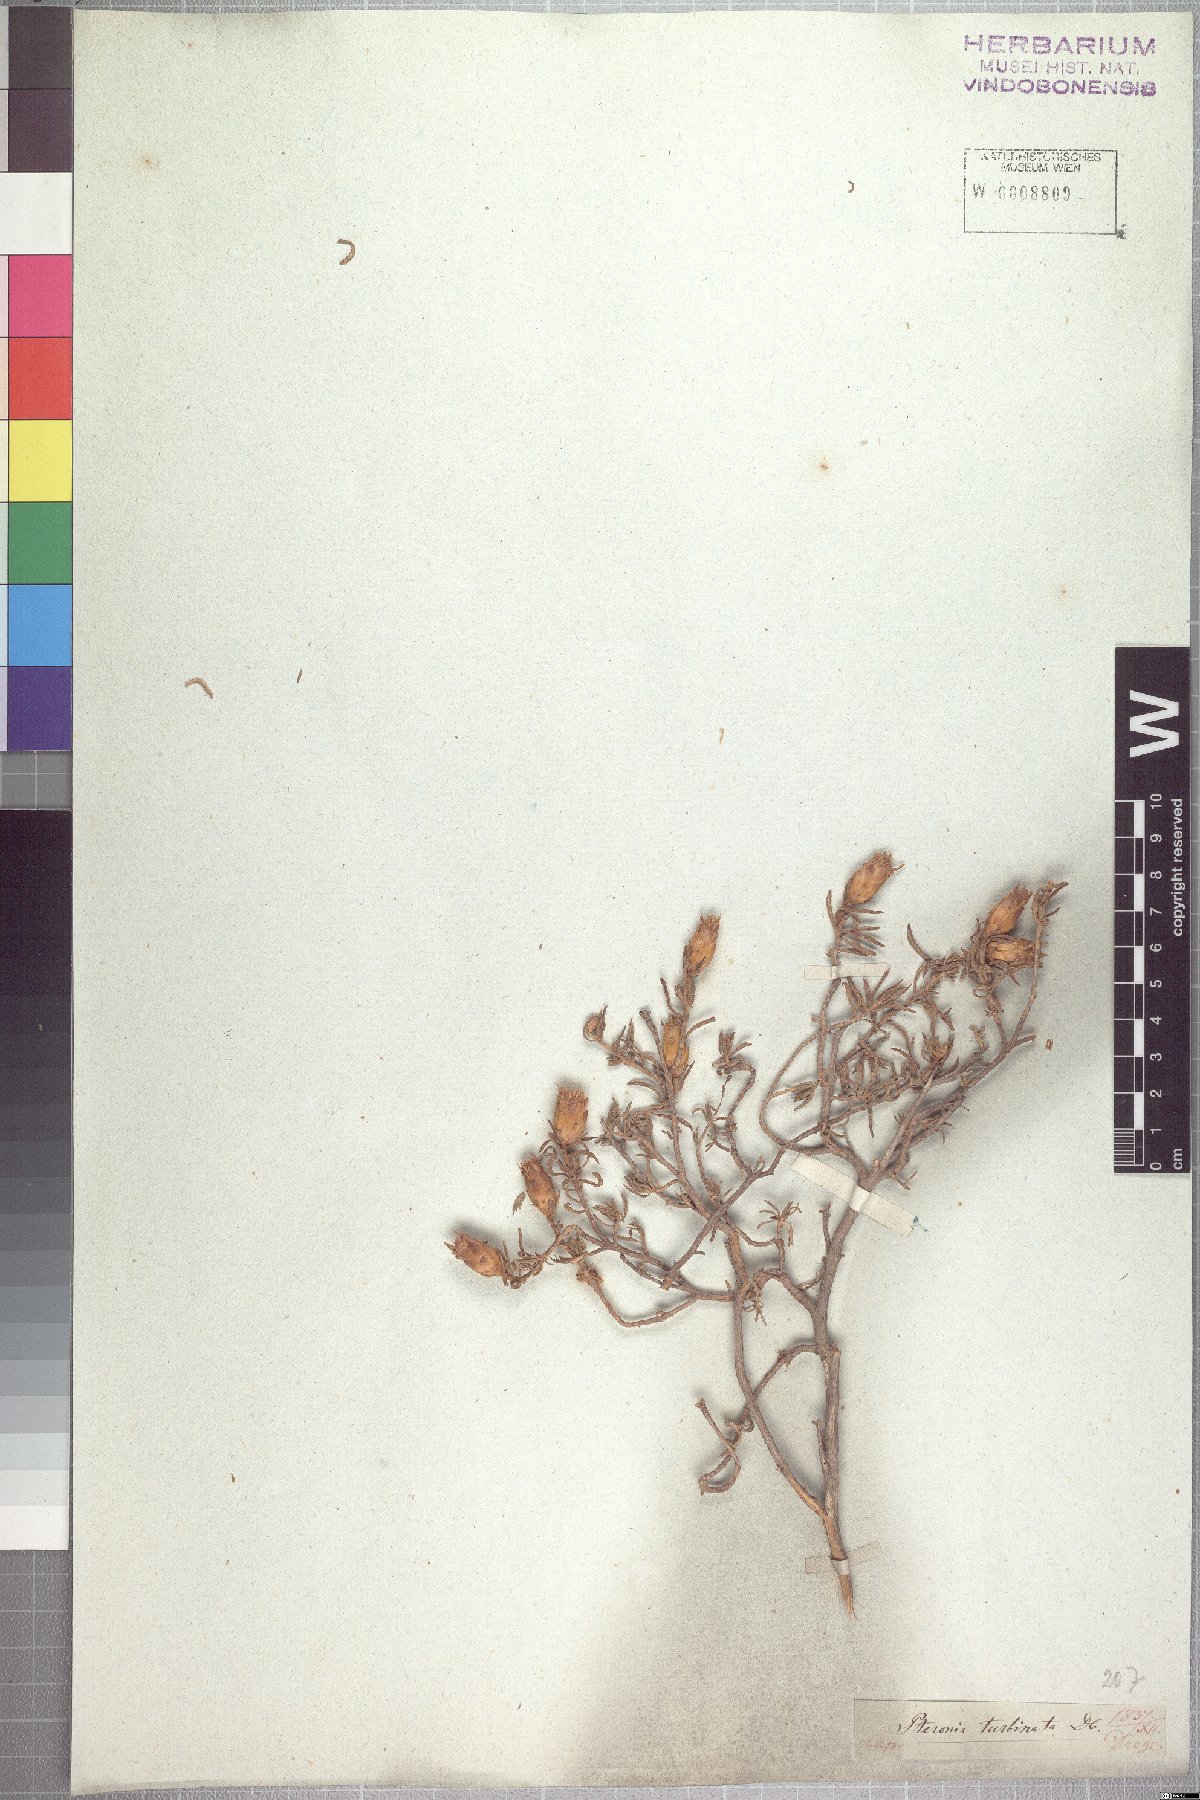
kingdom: Plantae
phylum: Tracheophyta
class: Magnoliopsida
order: Asterales
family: Asteraceae
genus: Pteronia
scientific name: Pteronia ciliata
